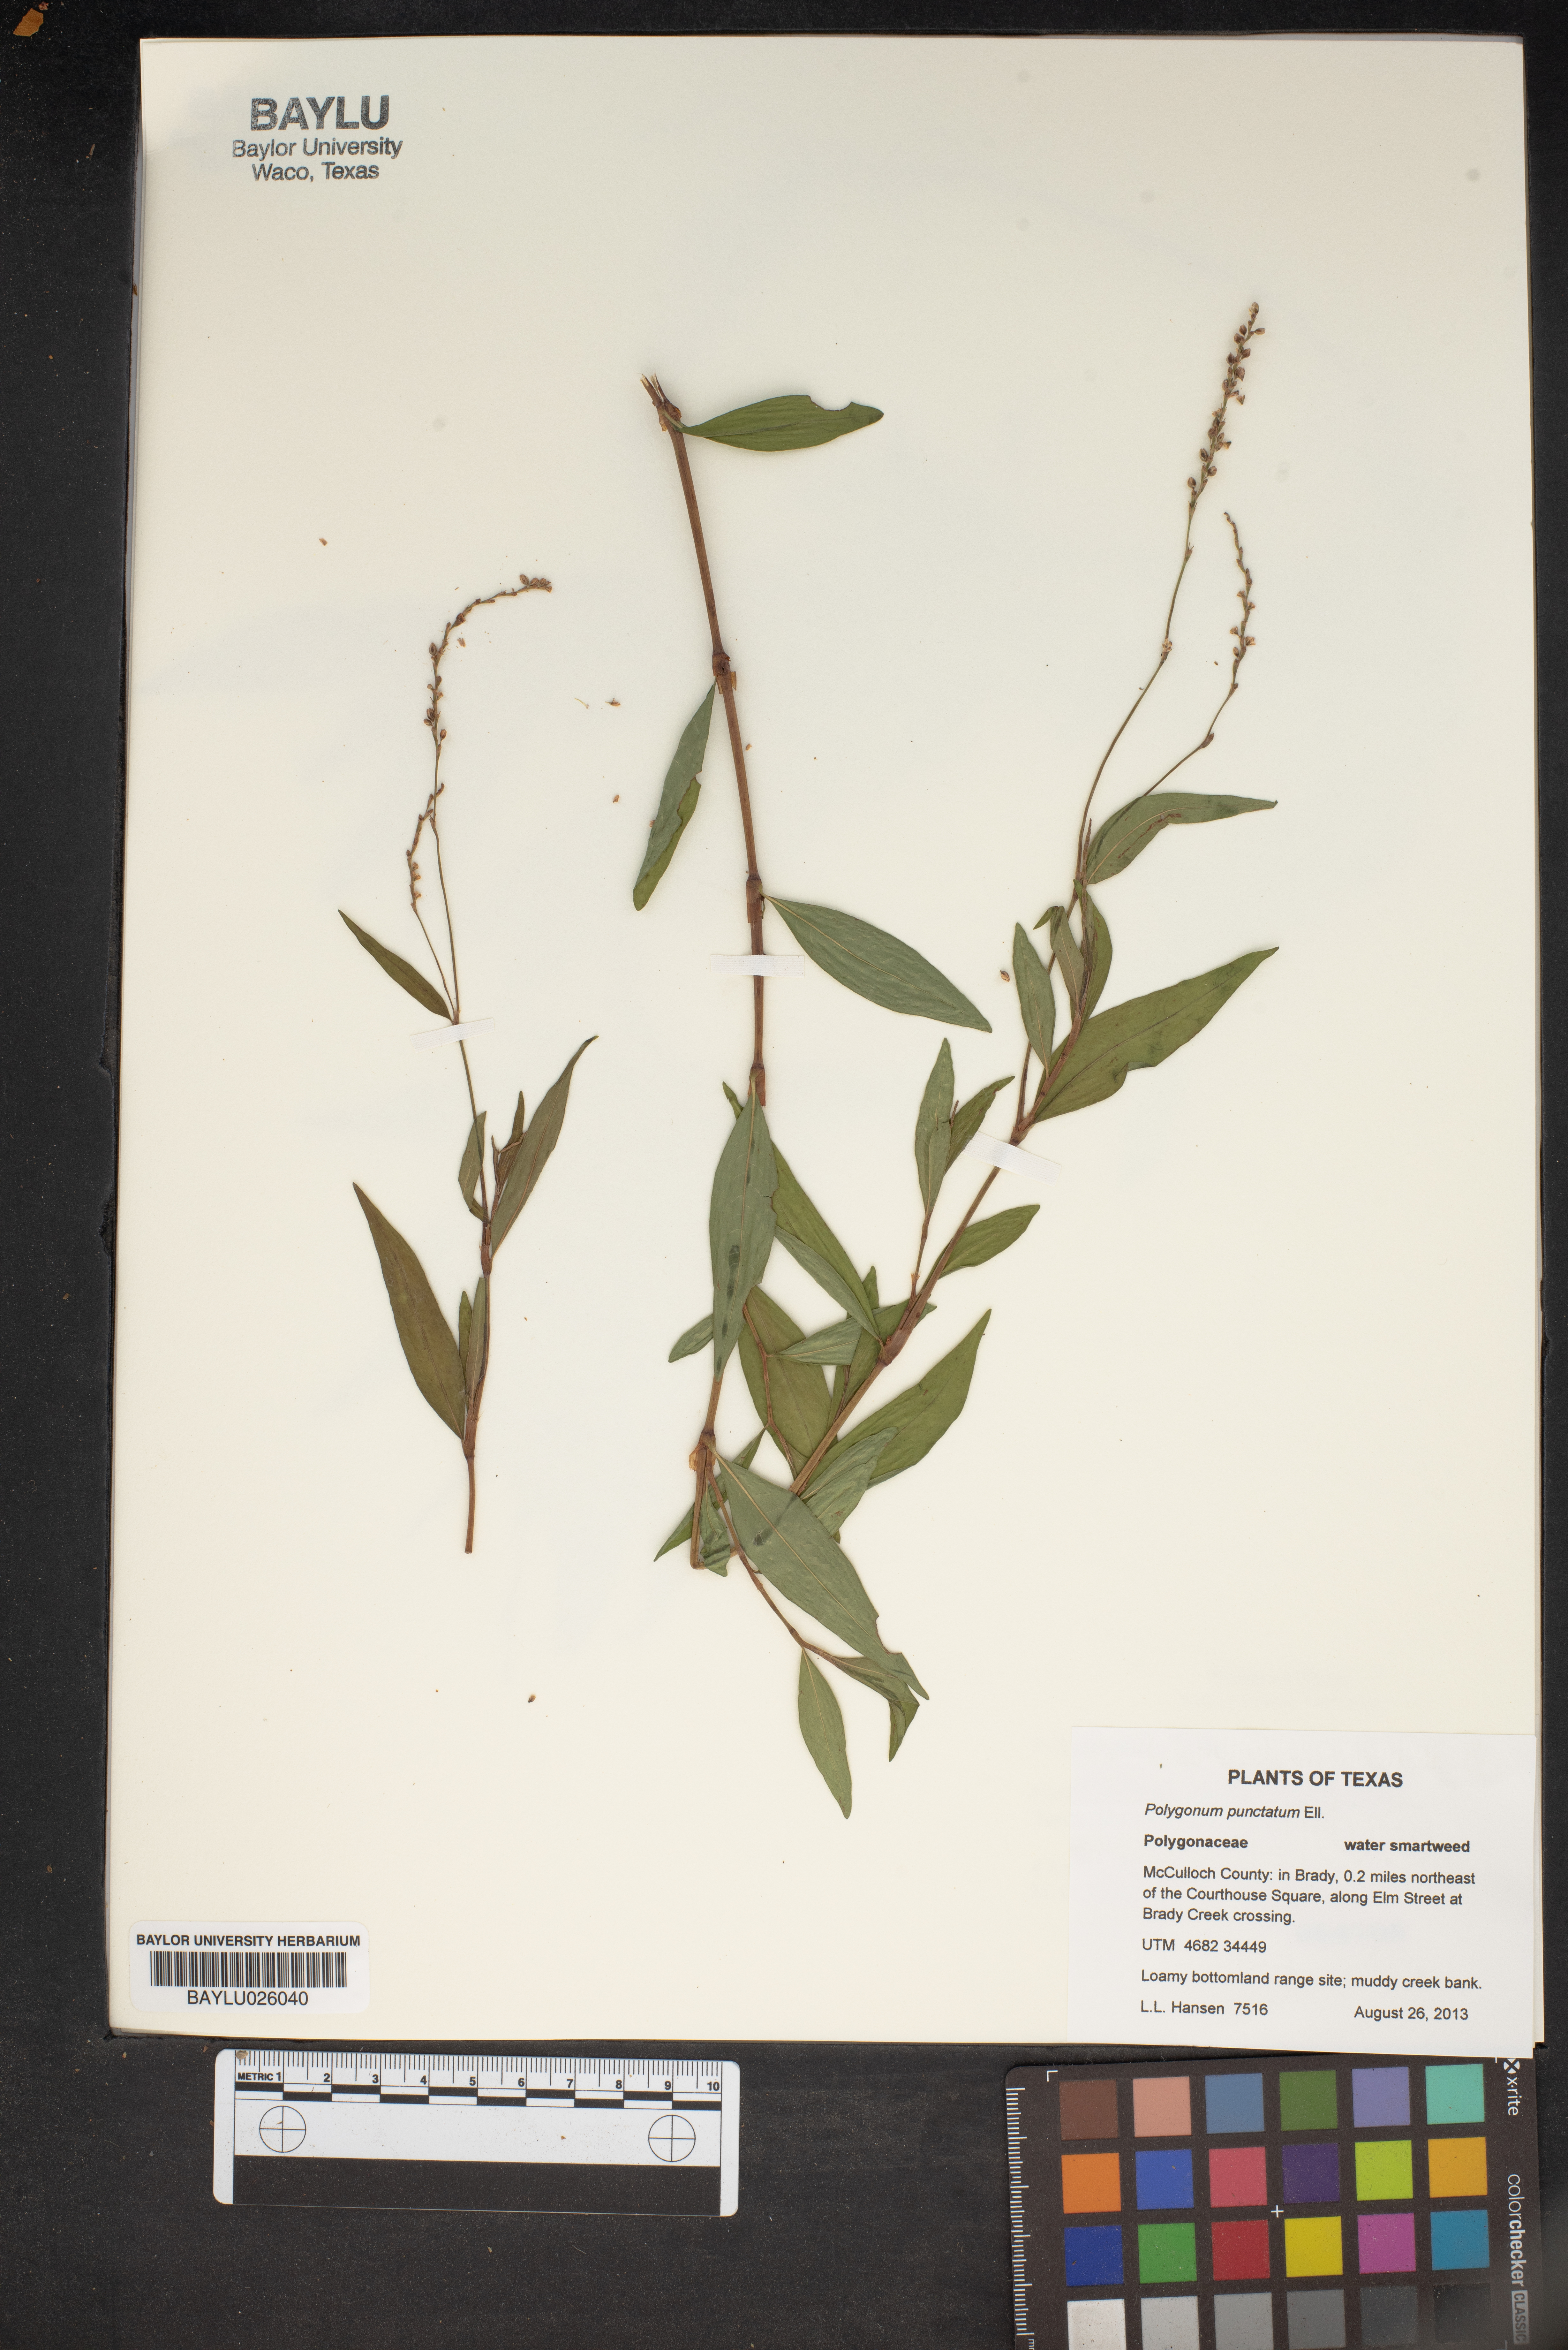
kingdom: Plantae
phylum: Tracheophyta
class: Magnoliopsida
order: Caryophyllales
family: Polygonaceae
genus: Persicaria
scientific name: Persicaria punctata
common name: Dotted smartweed
